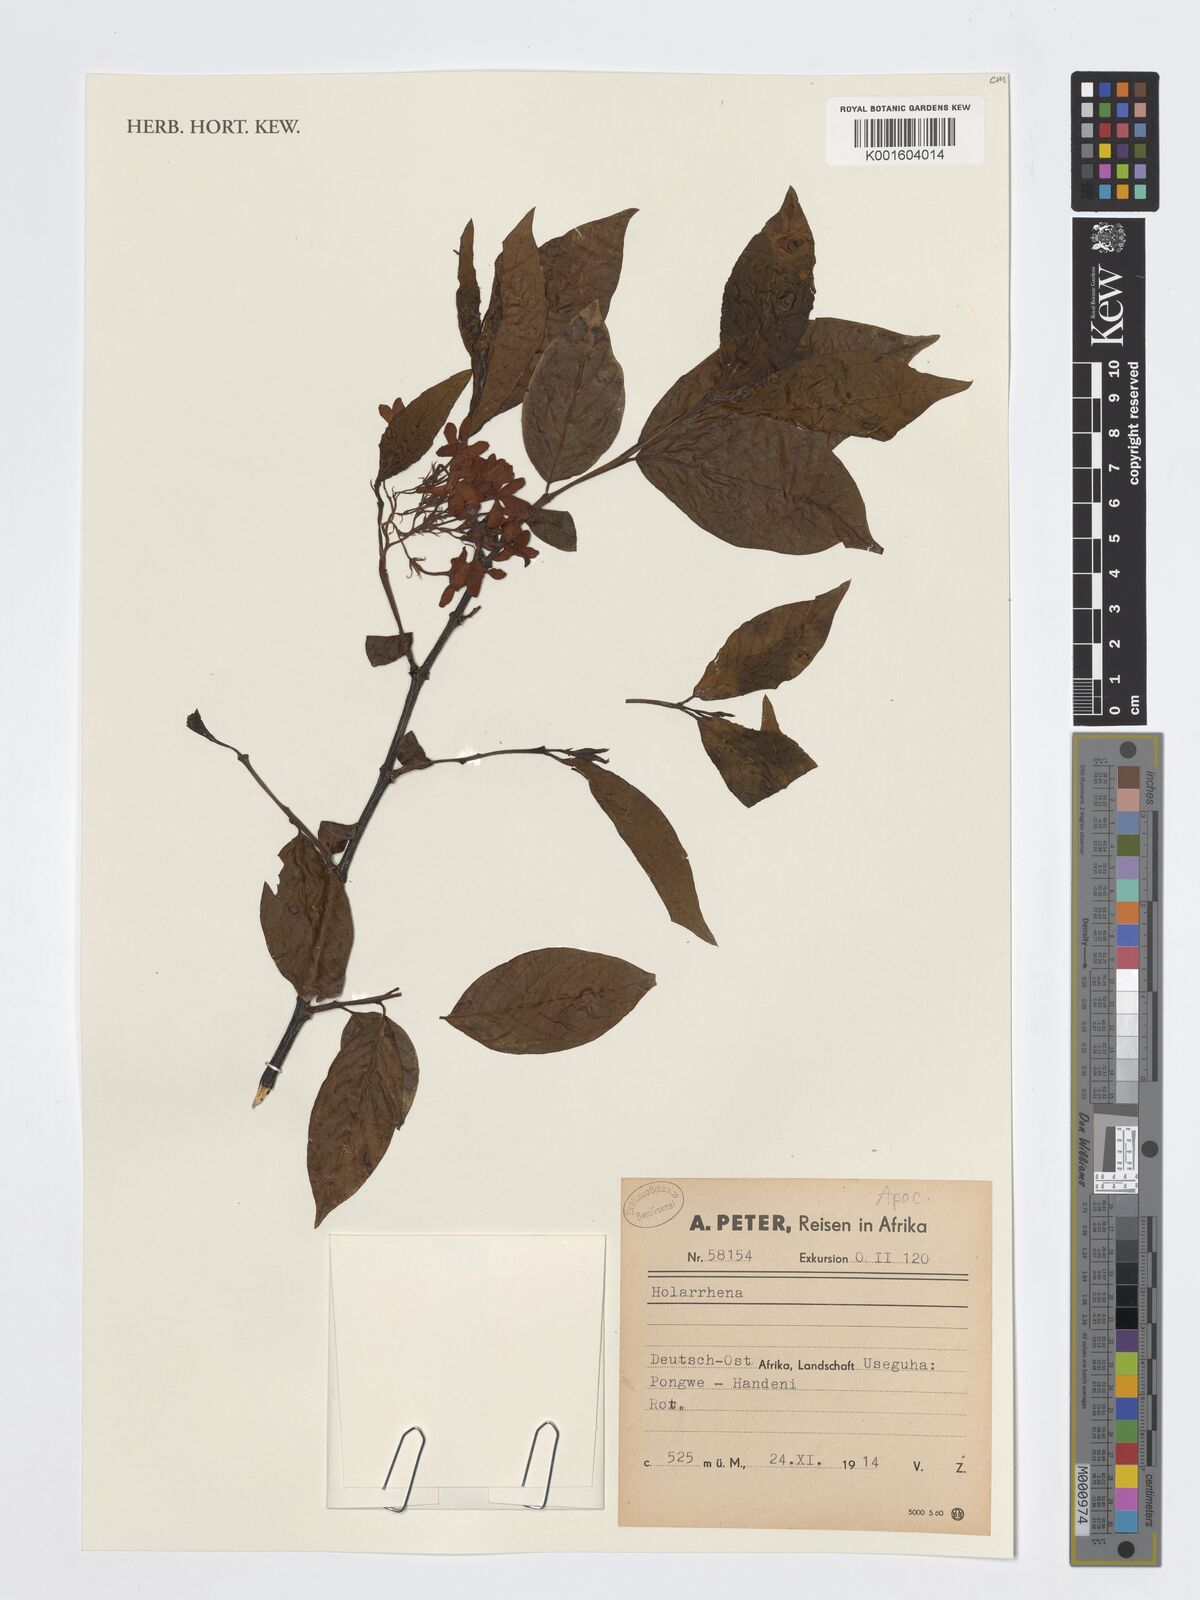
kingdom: Plantae
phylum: Tracheophyta
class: Magnoliopsida
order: Gentianales
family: Apocynaceae
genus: Holarrhena
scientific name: Holarrhena
